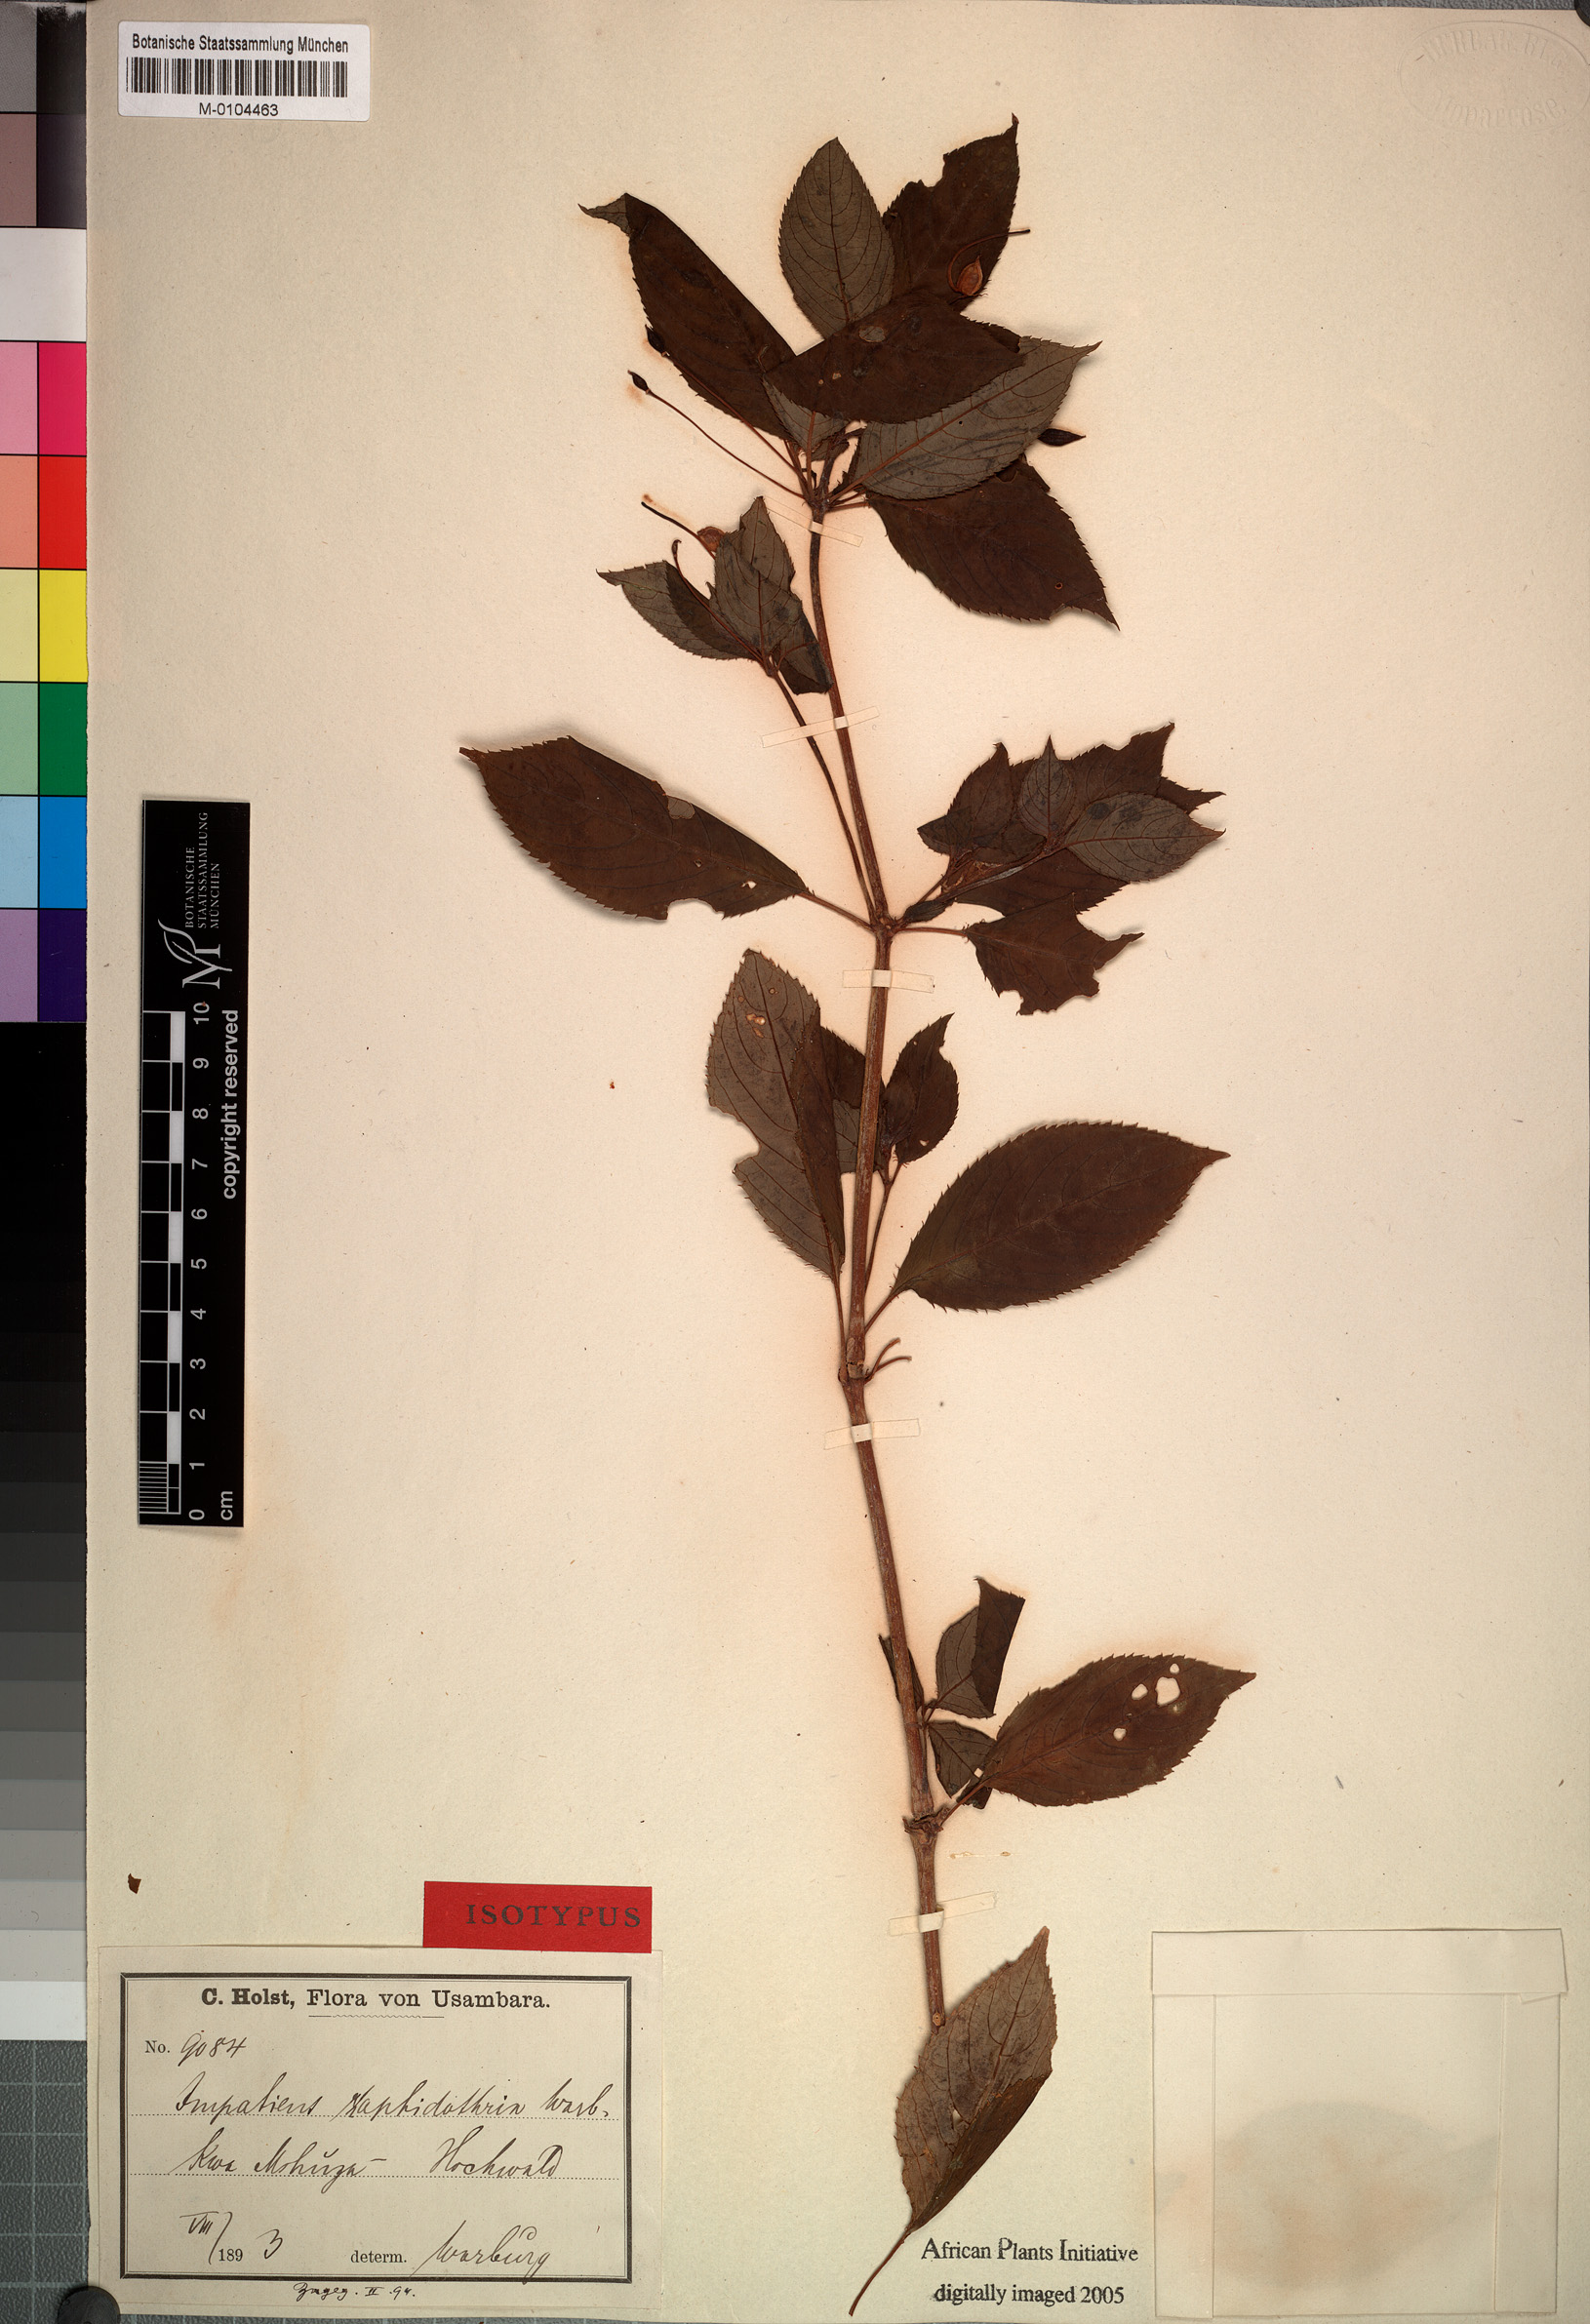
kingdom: Plantae
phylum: Tracheophyta
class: Magnoliopsida
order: Ericales
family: Balsaminaceae
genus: Impatiens
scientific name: Impatiens raphidothrix
